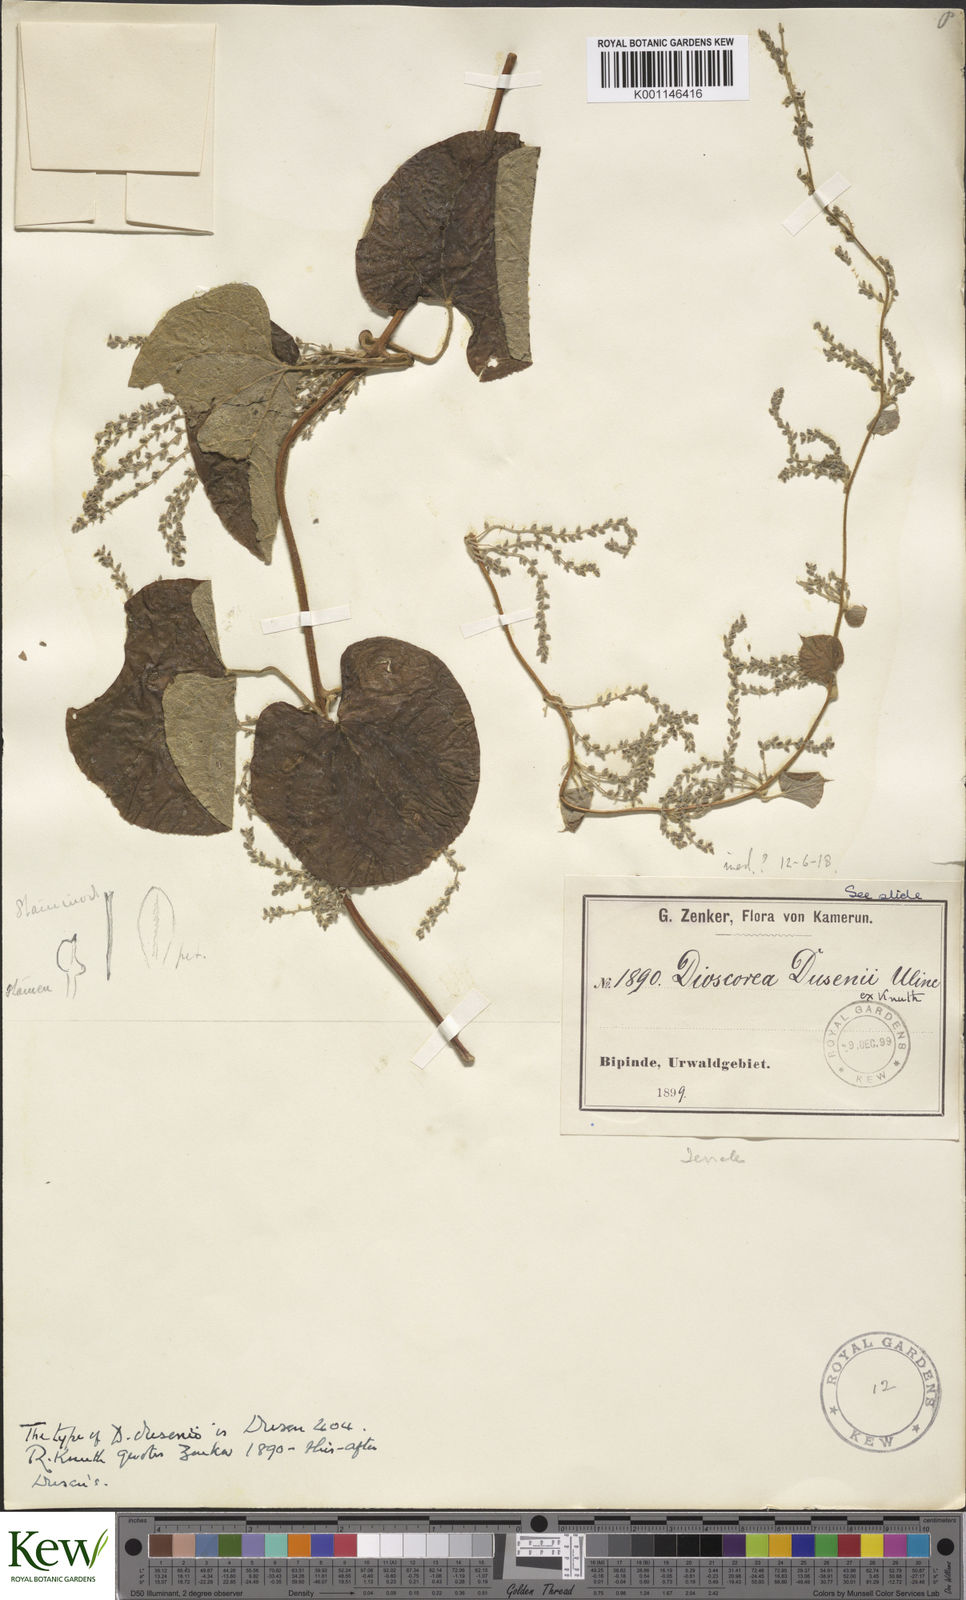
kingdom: Plantae
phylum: Tracheophyta
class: Liliopsida
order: Dioscoreales
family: Dioscoreaceae
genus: Dioscorea
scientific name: Dioscorea hirtiflora
